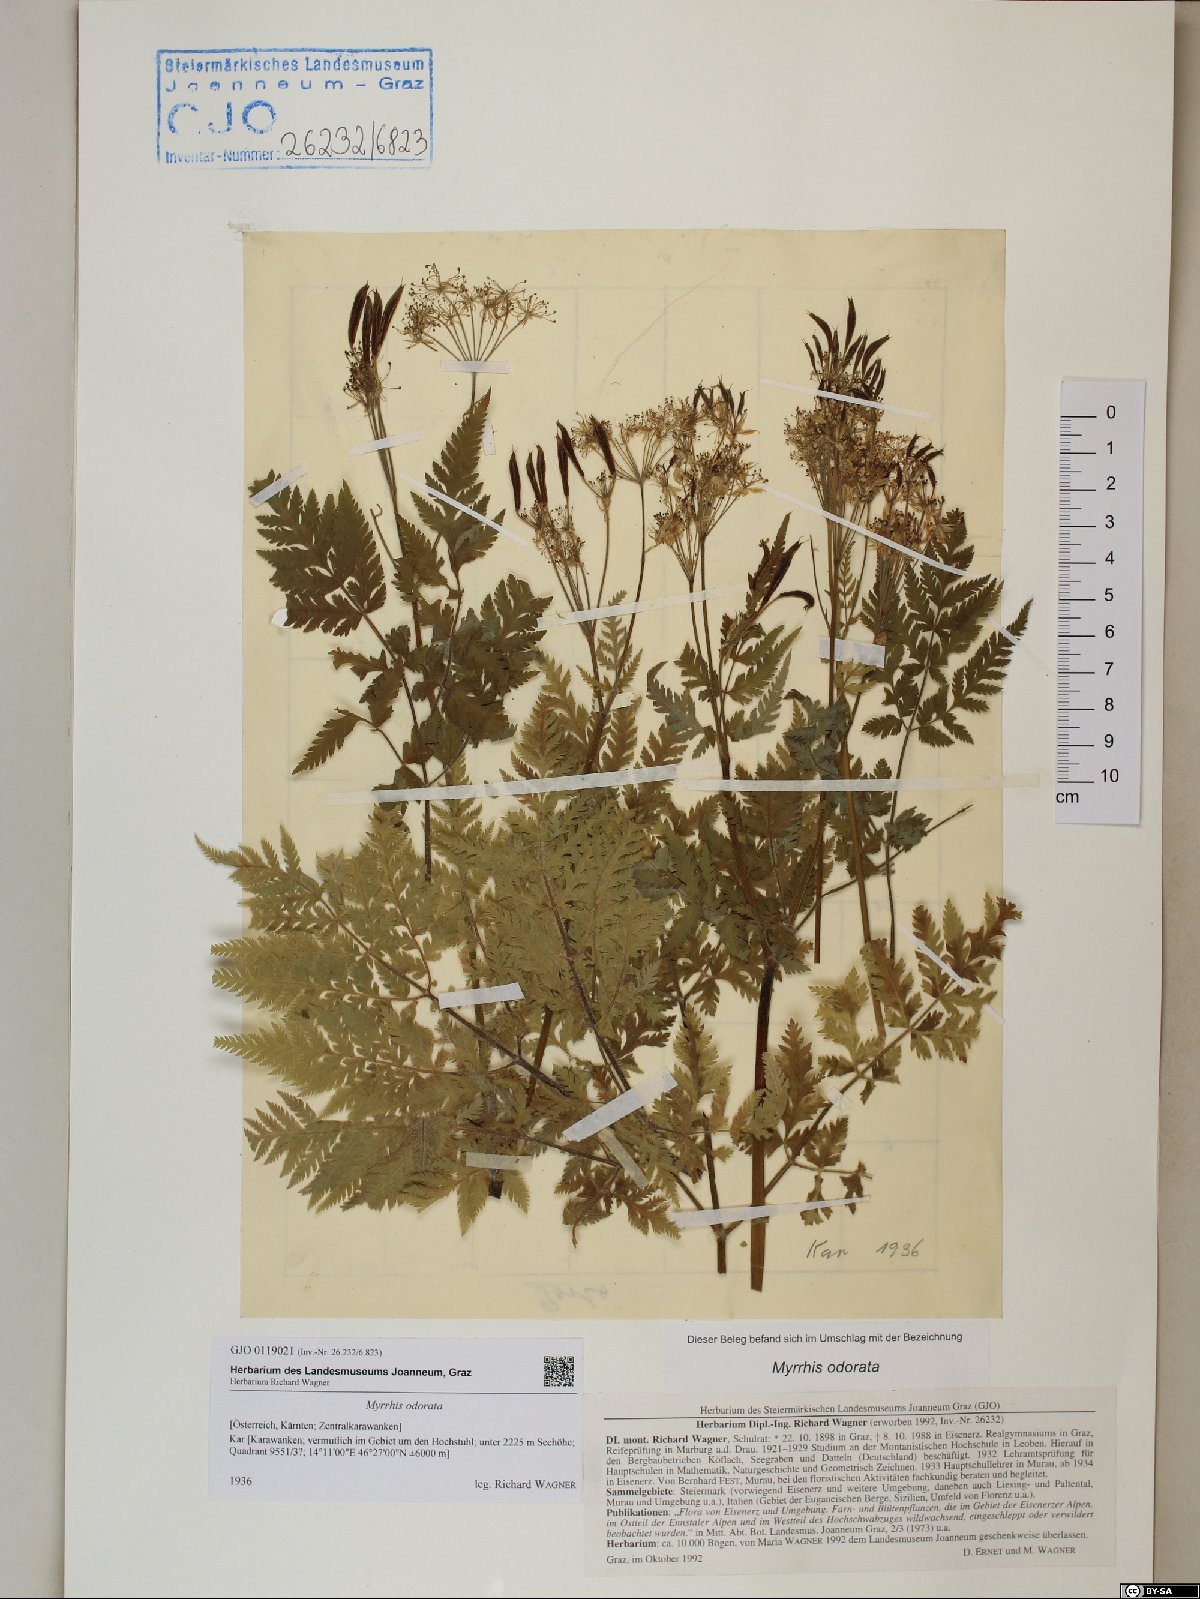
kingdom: Plantae
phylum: Tracheophyta
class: Magnoliopsida
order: Apiales
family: Apiaceae
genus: Myrrhis
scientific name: Myrrhis odorata
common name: Sweet cicely
